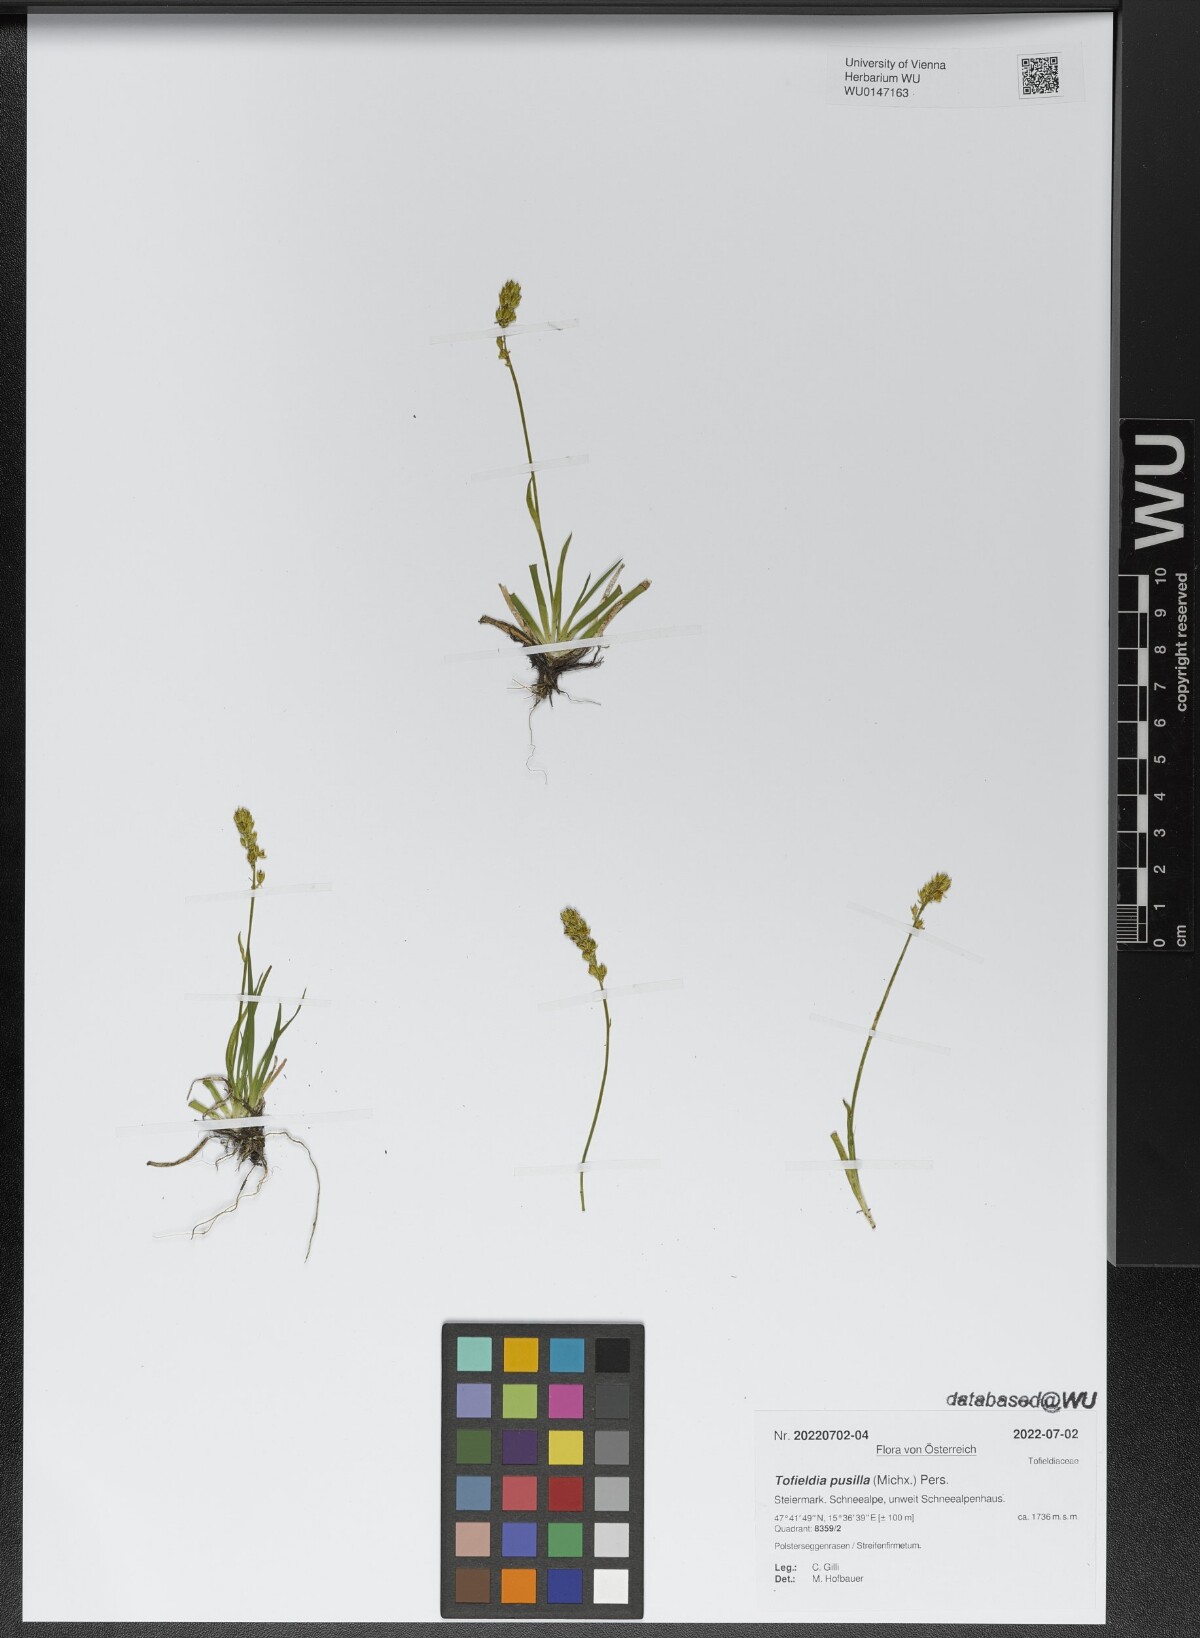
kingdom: Plantae
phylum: Tracheophyta
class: Liliopsida
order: Alismatales
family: Tofieldiaceae
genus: Tofieldia
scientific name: Tofieldia pusilla
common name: Scottish false asphodel
